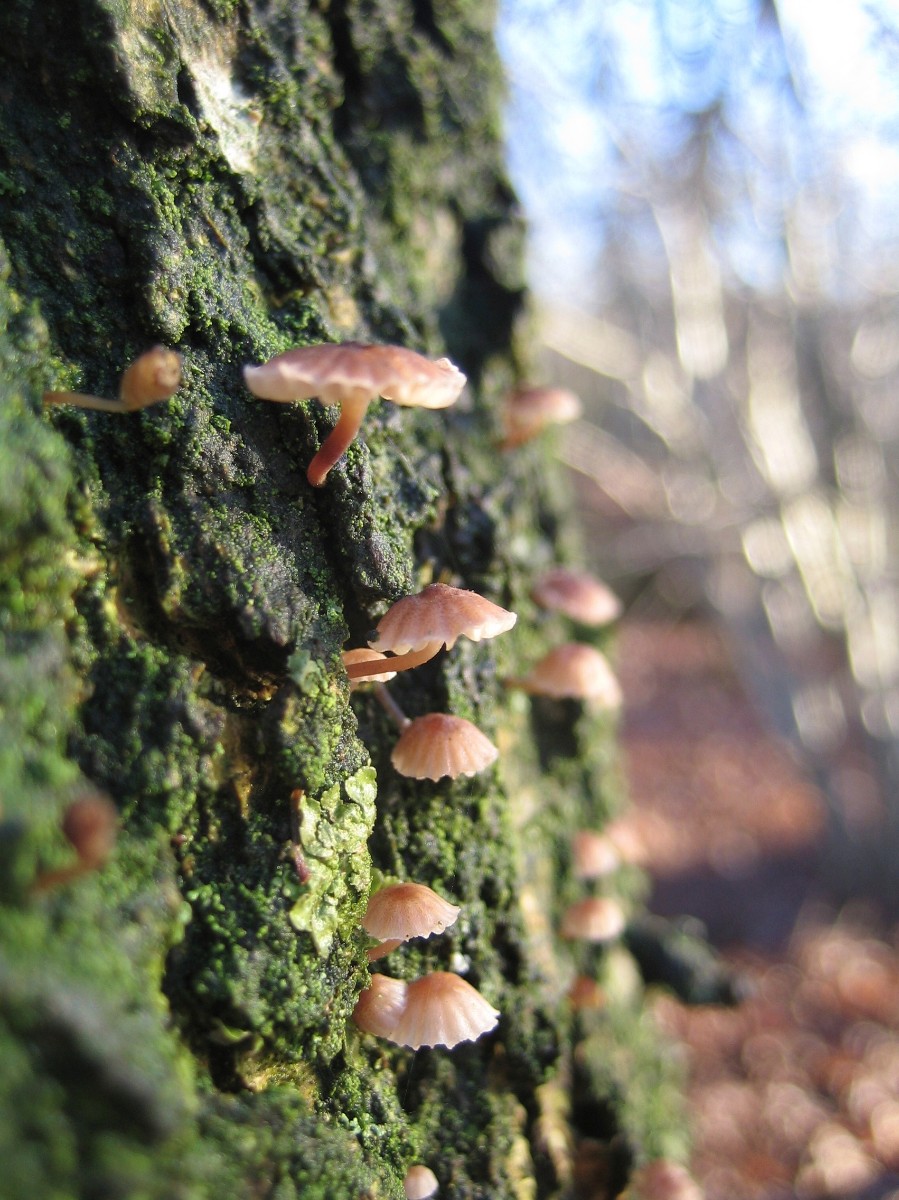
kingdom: Fungi
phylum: Basidiomycota
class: Agaricomycetes
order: Agaricales
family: Mycenaceae
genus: Mycena
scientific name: Mycena meliigena
